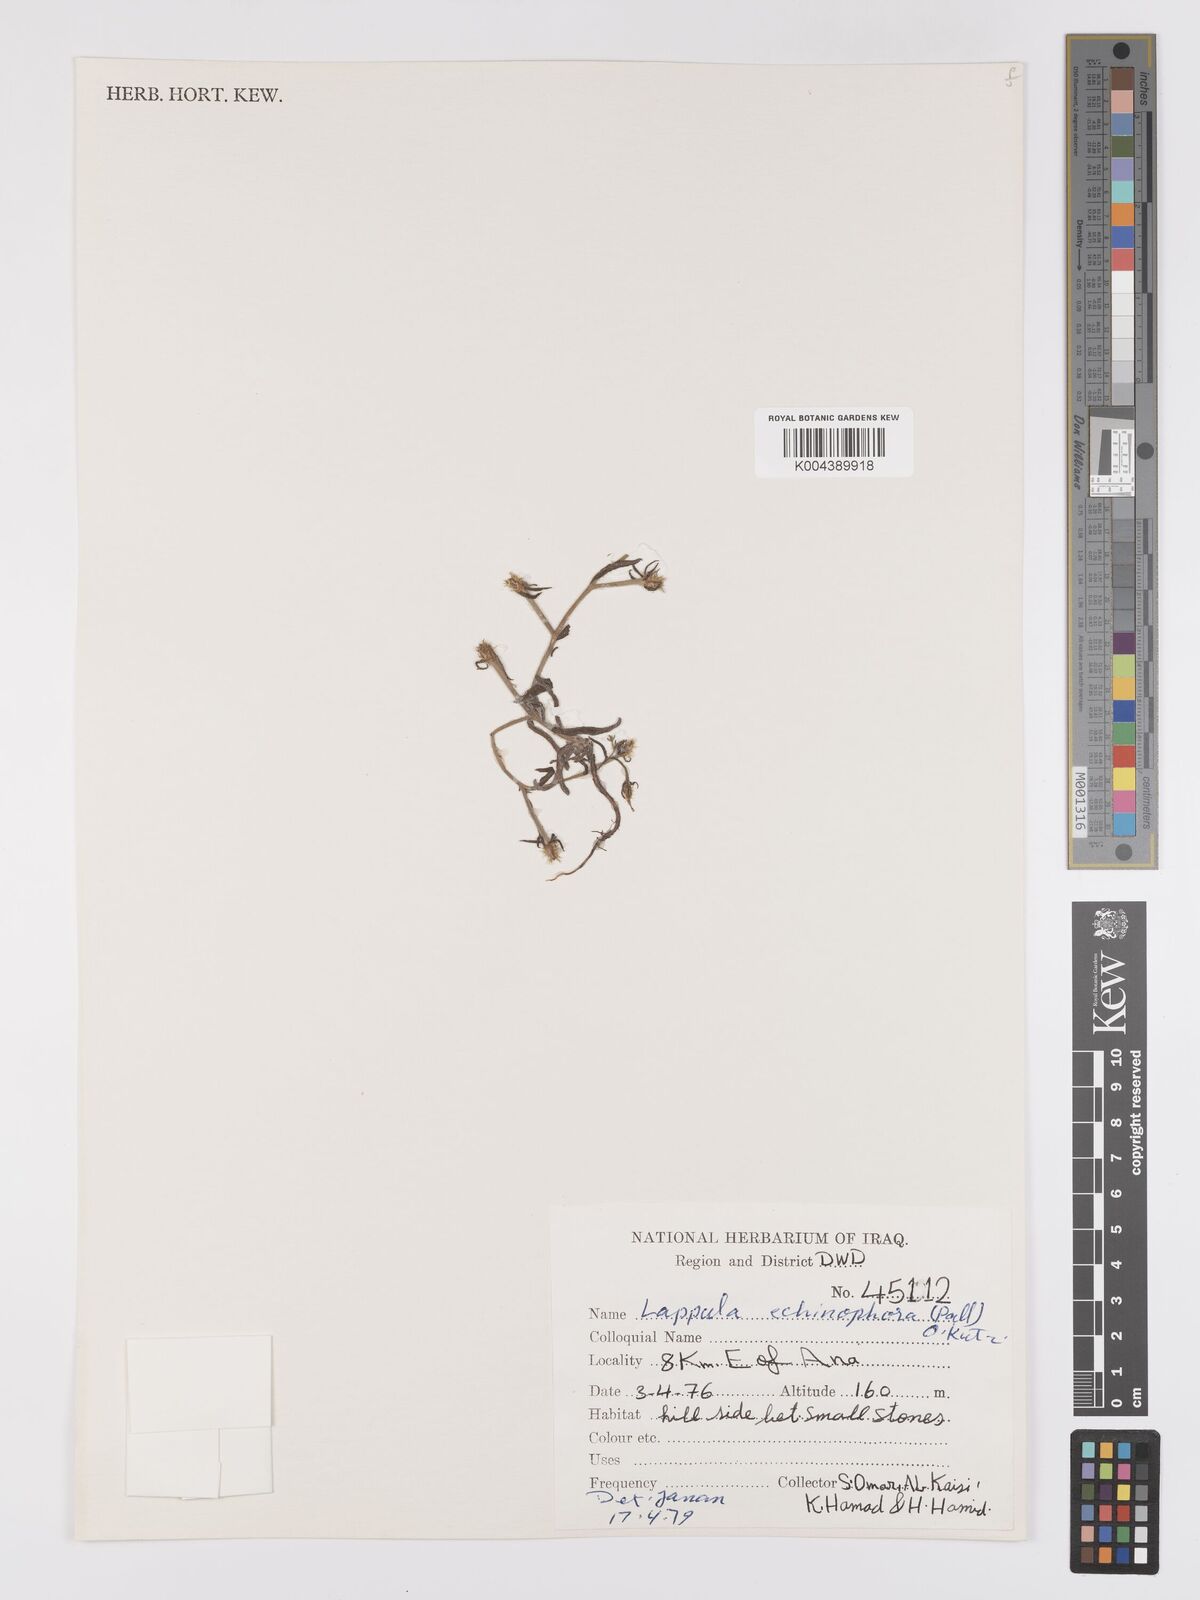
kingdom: Plantae
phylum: Tracheophyta
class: Magnoliopsida
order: Boraginales
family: Boraginaceae
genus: Heterocaryum
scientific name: Heterocaryum echinophorum
